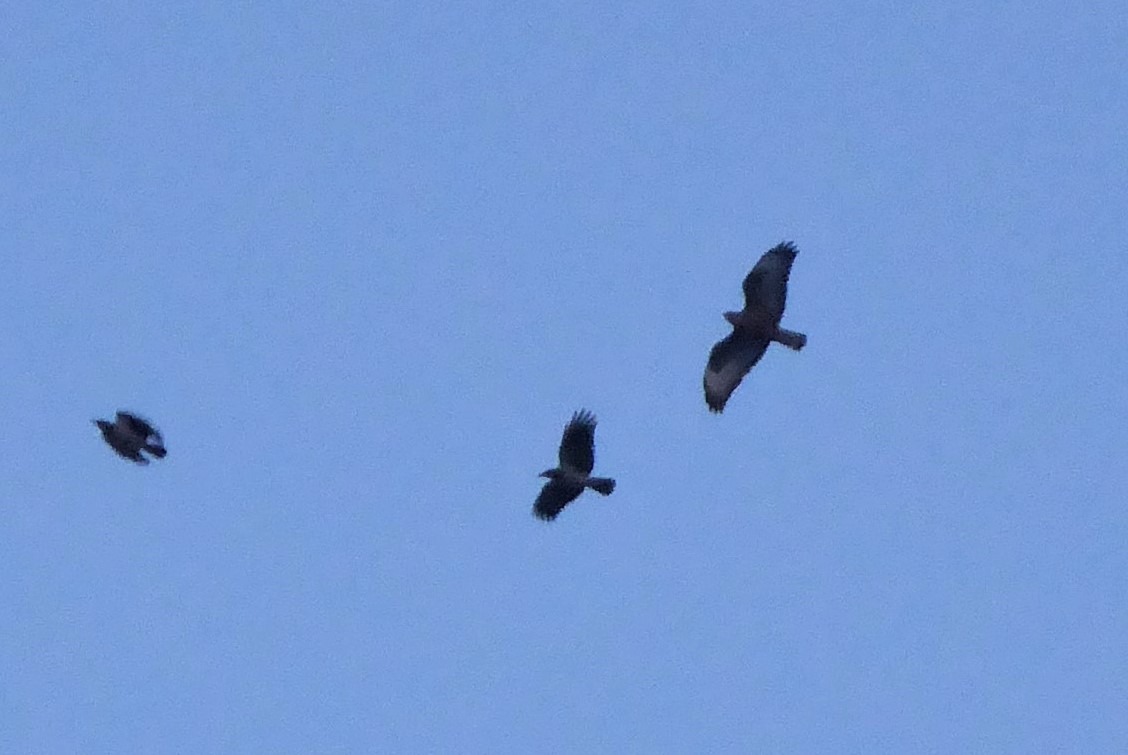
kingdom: Animalia
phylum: Chordata
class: Aves
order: Accipitriformes
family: Accipitridae
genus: Buteo
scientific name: Buteo buteo
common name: Musvåge
